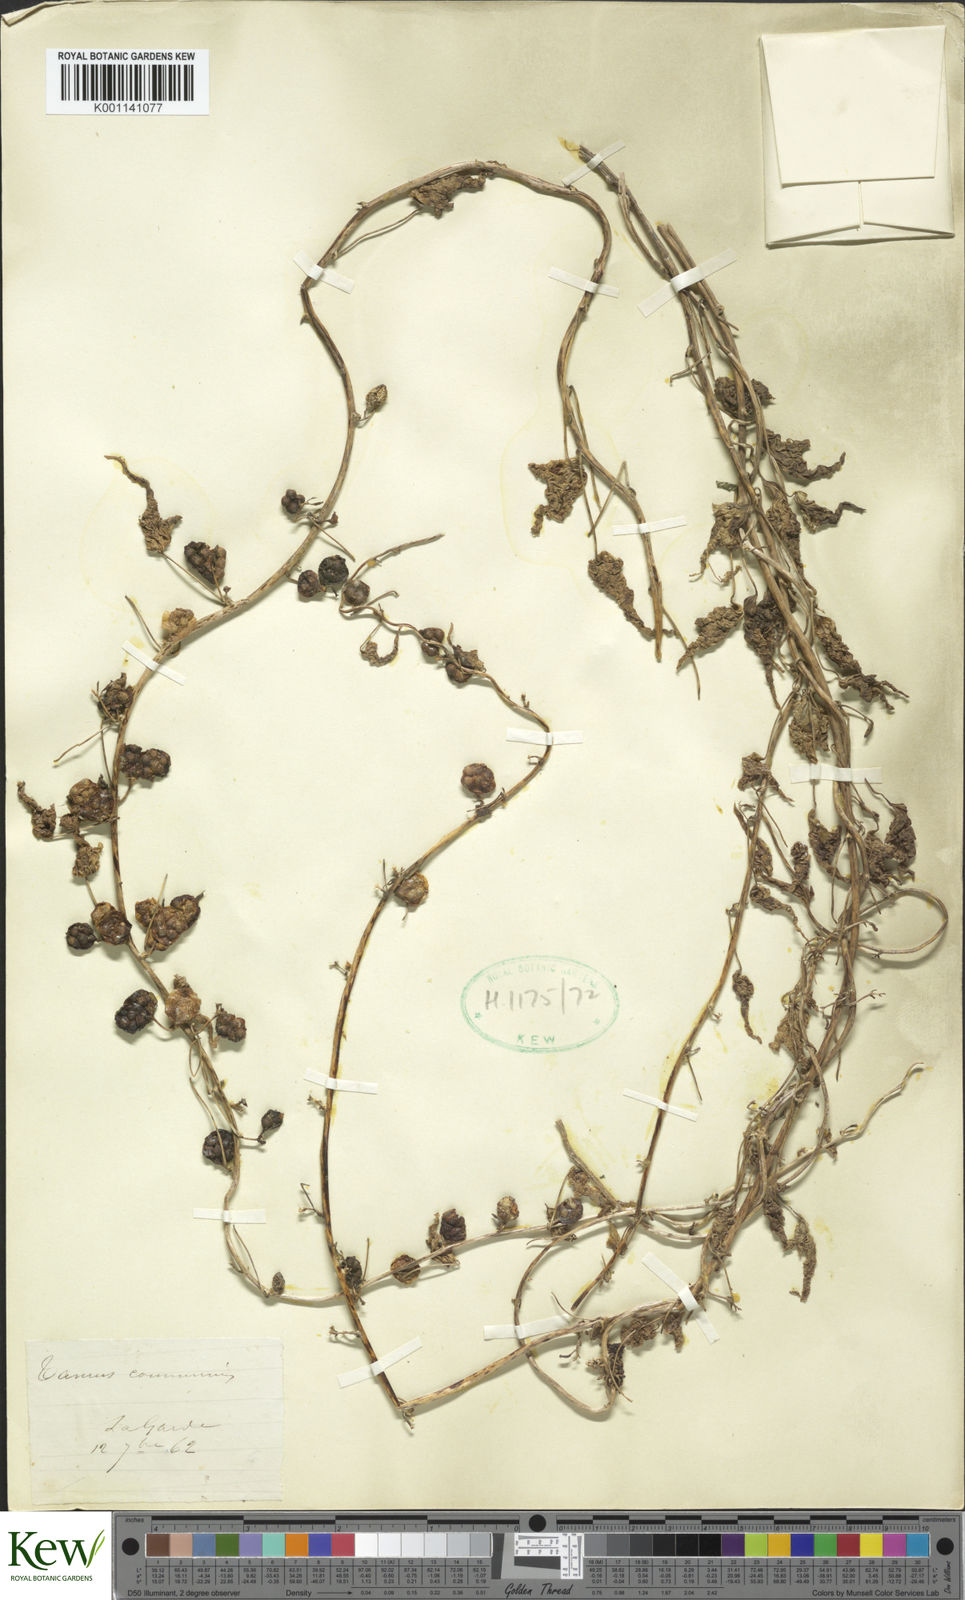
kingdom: Plantae
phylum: Tracheophyta
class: Liliopsida
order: Dioscoreales
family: Dioscoreaceae
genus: Dioscorea
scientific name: Dioscorea communis
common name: Black-bindweed
